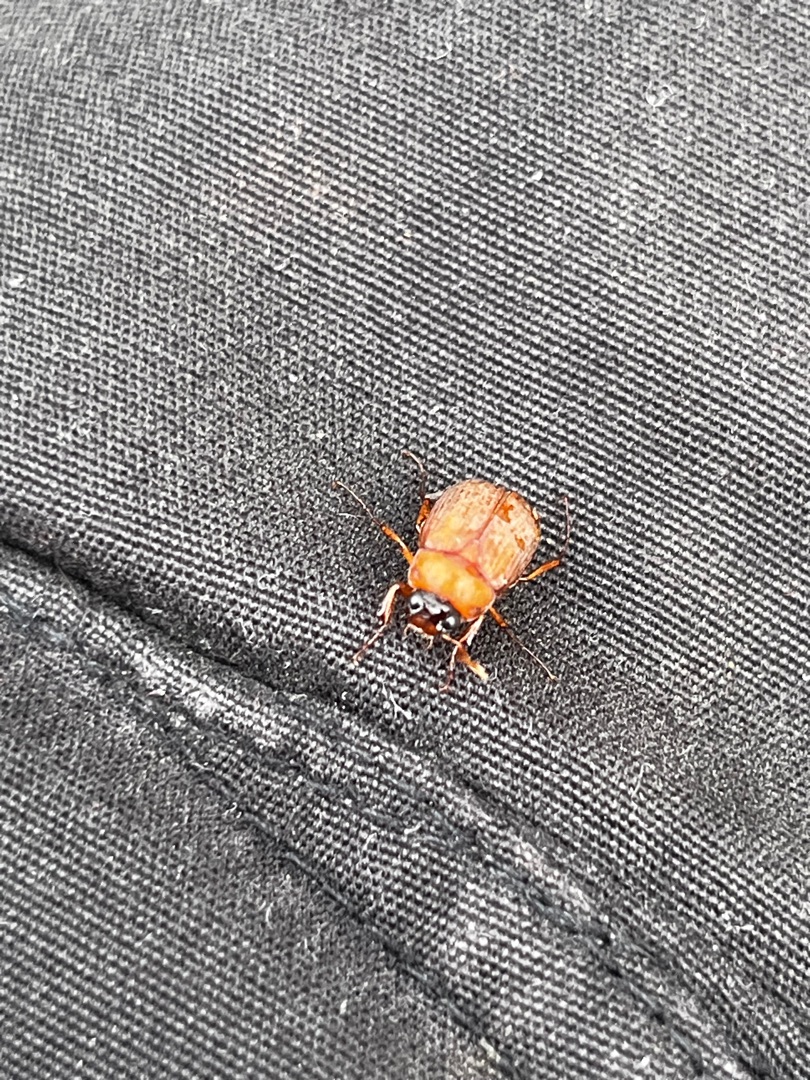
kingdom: Animalia
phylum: Arthropoda
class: Insecta
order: Coleoptera
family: Scarabaeidae
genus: Serica
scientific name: Serica brunnea
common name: Natoldenborre
